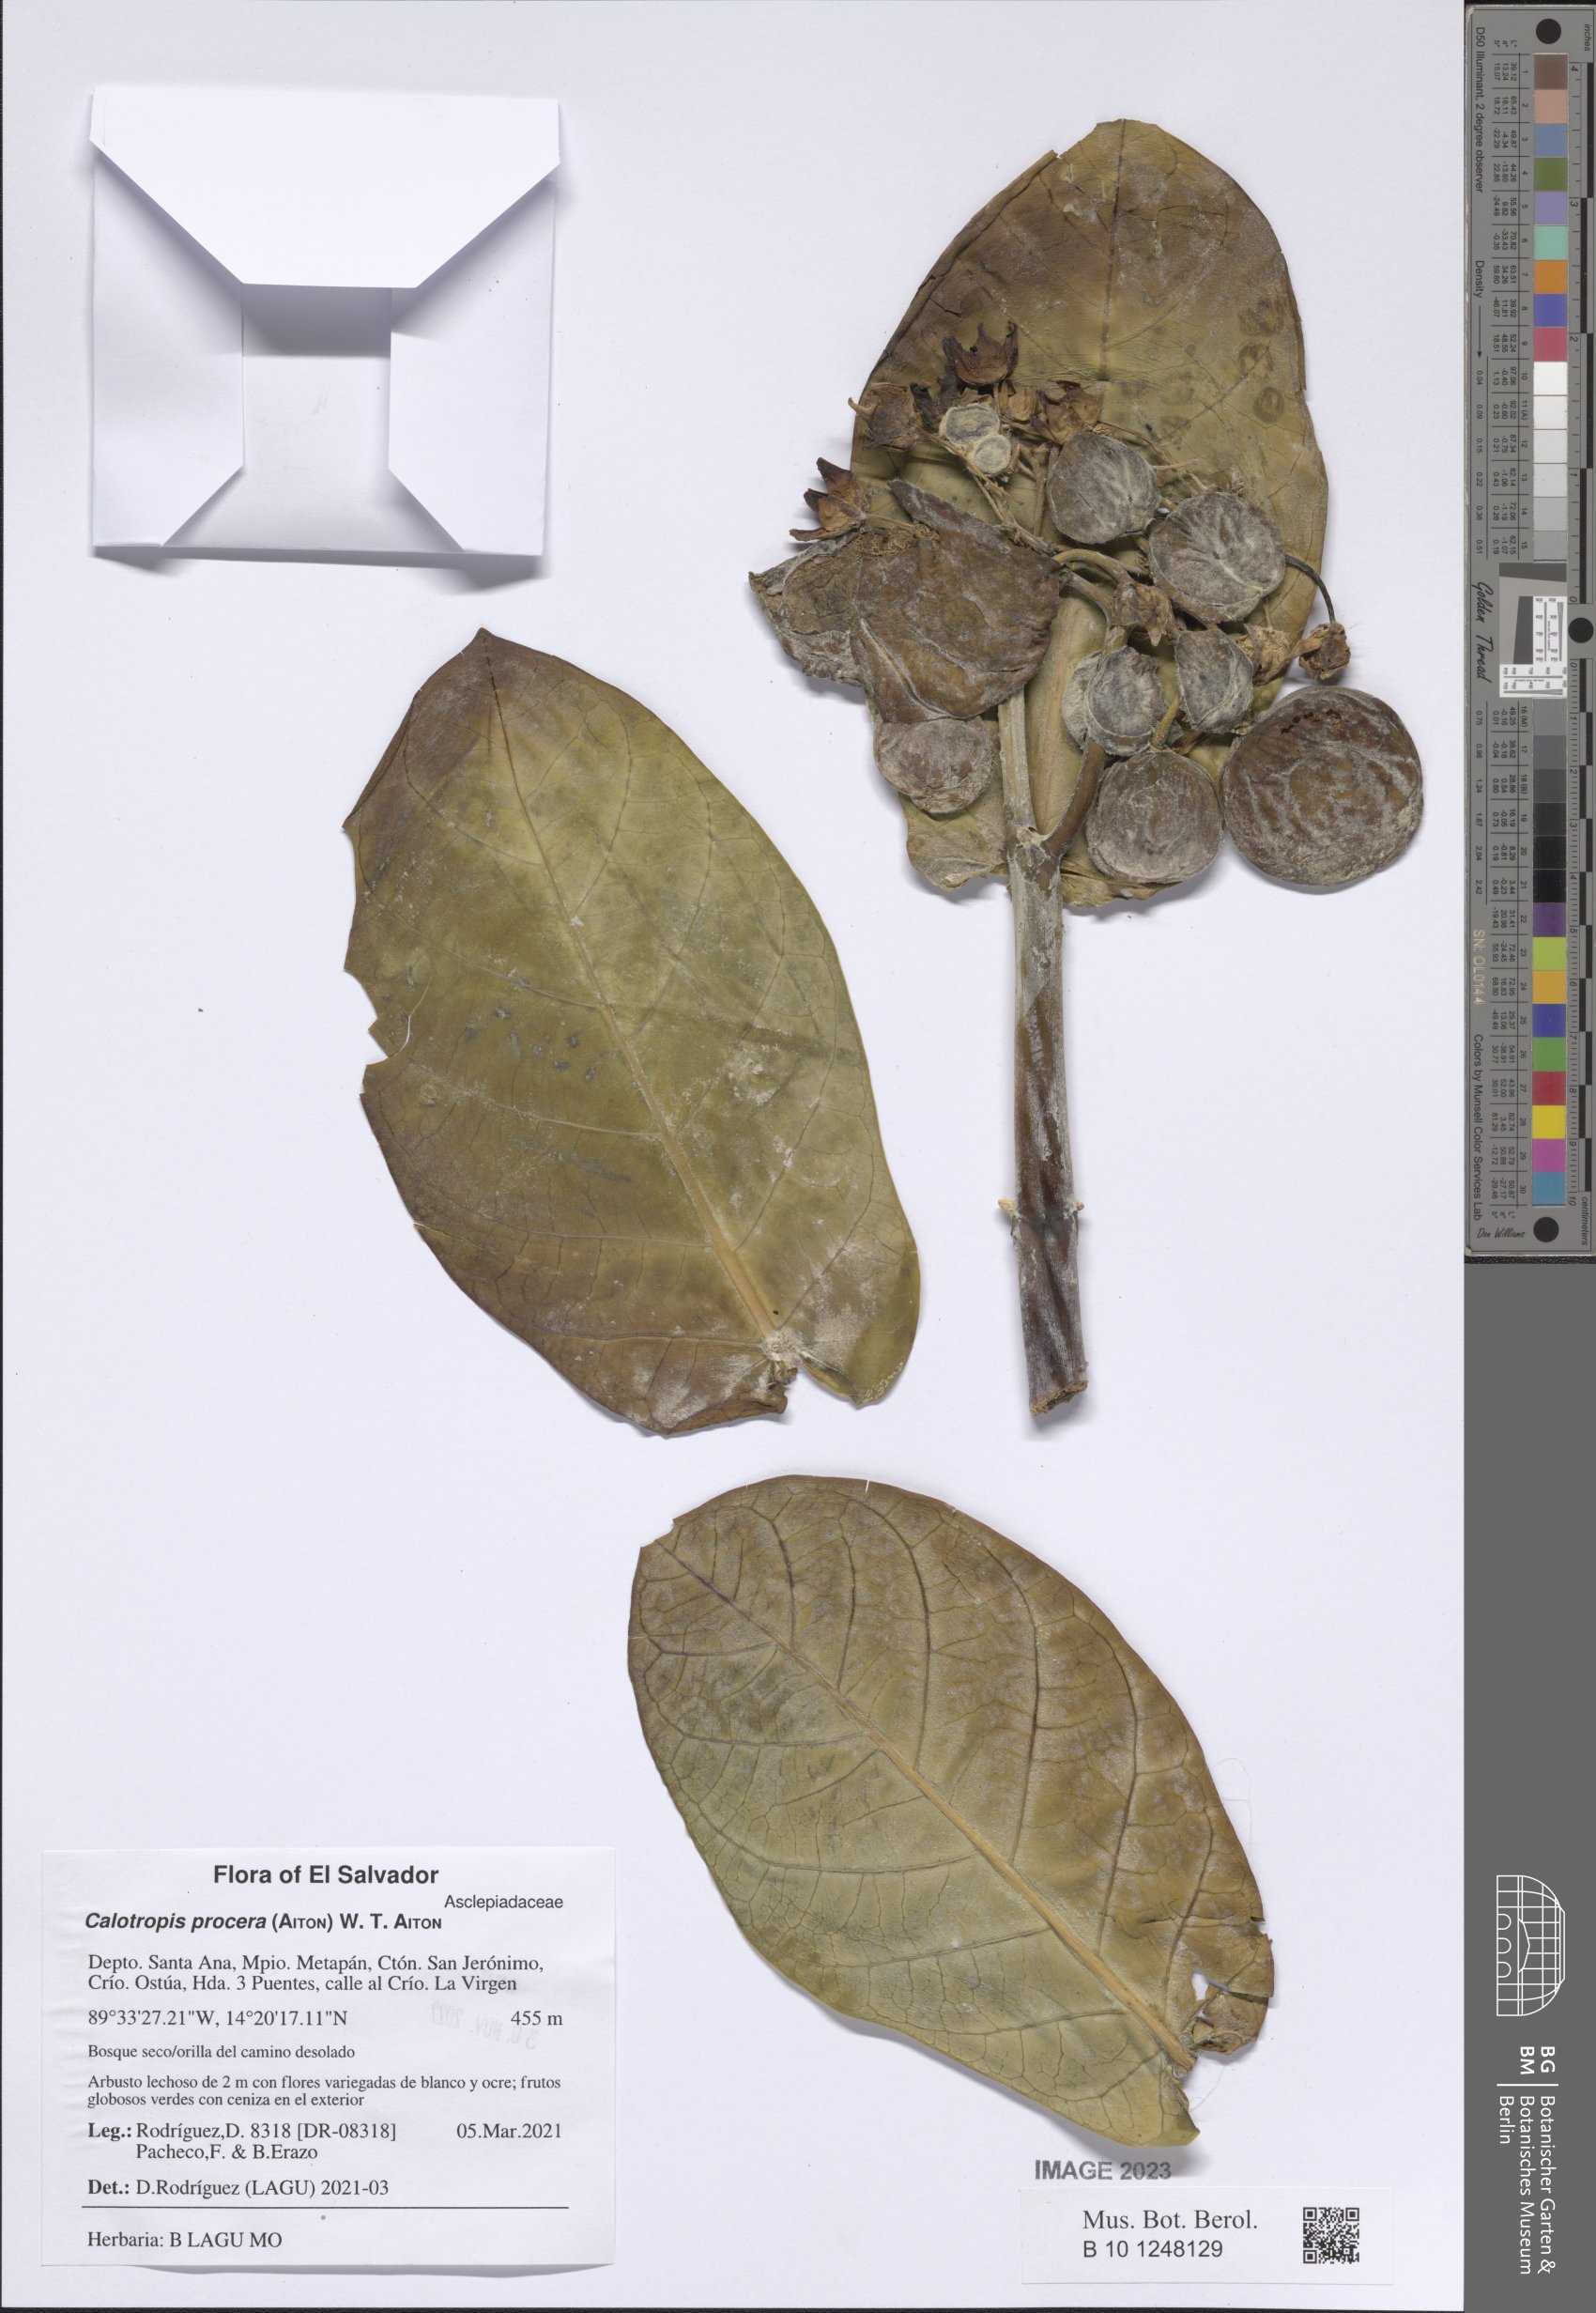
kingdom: Plantae
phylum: Tracheophyta
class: Magnoliopsida
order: Gentianales
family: Apocynaceae
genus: Calotropis
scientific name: Calotropis procera
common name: Roostertree
